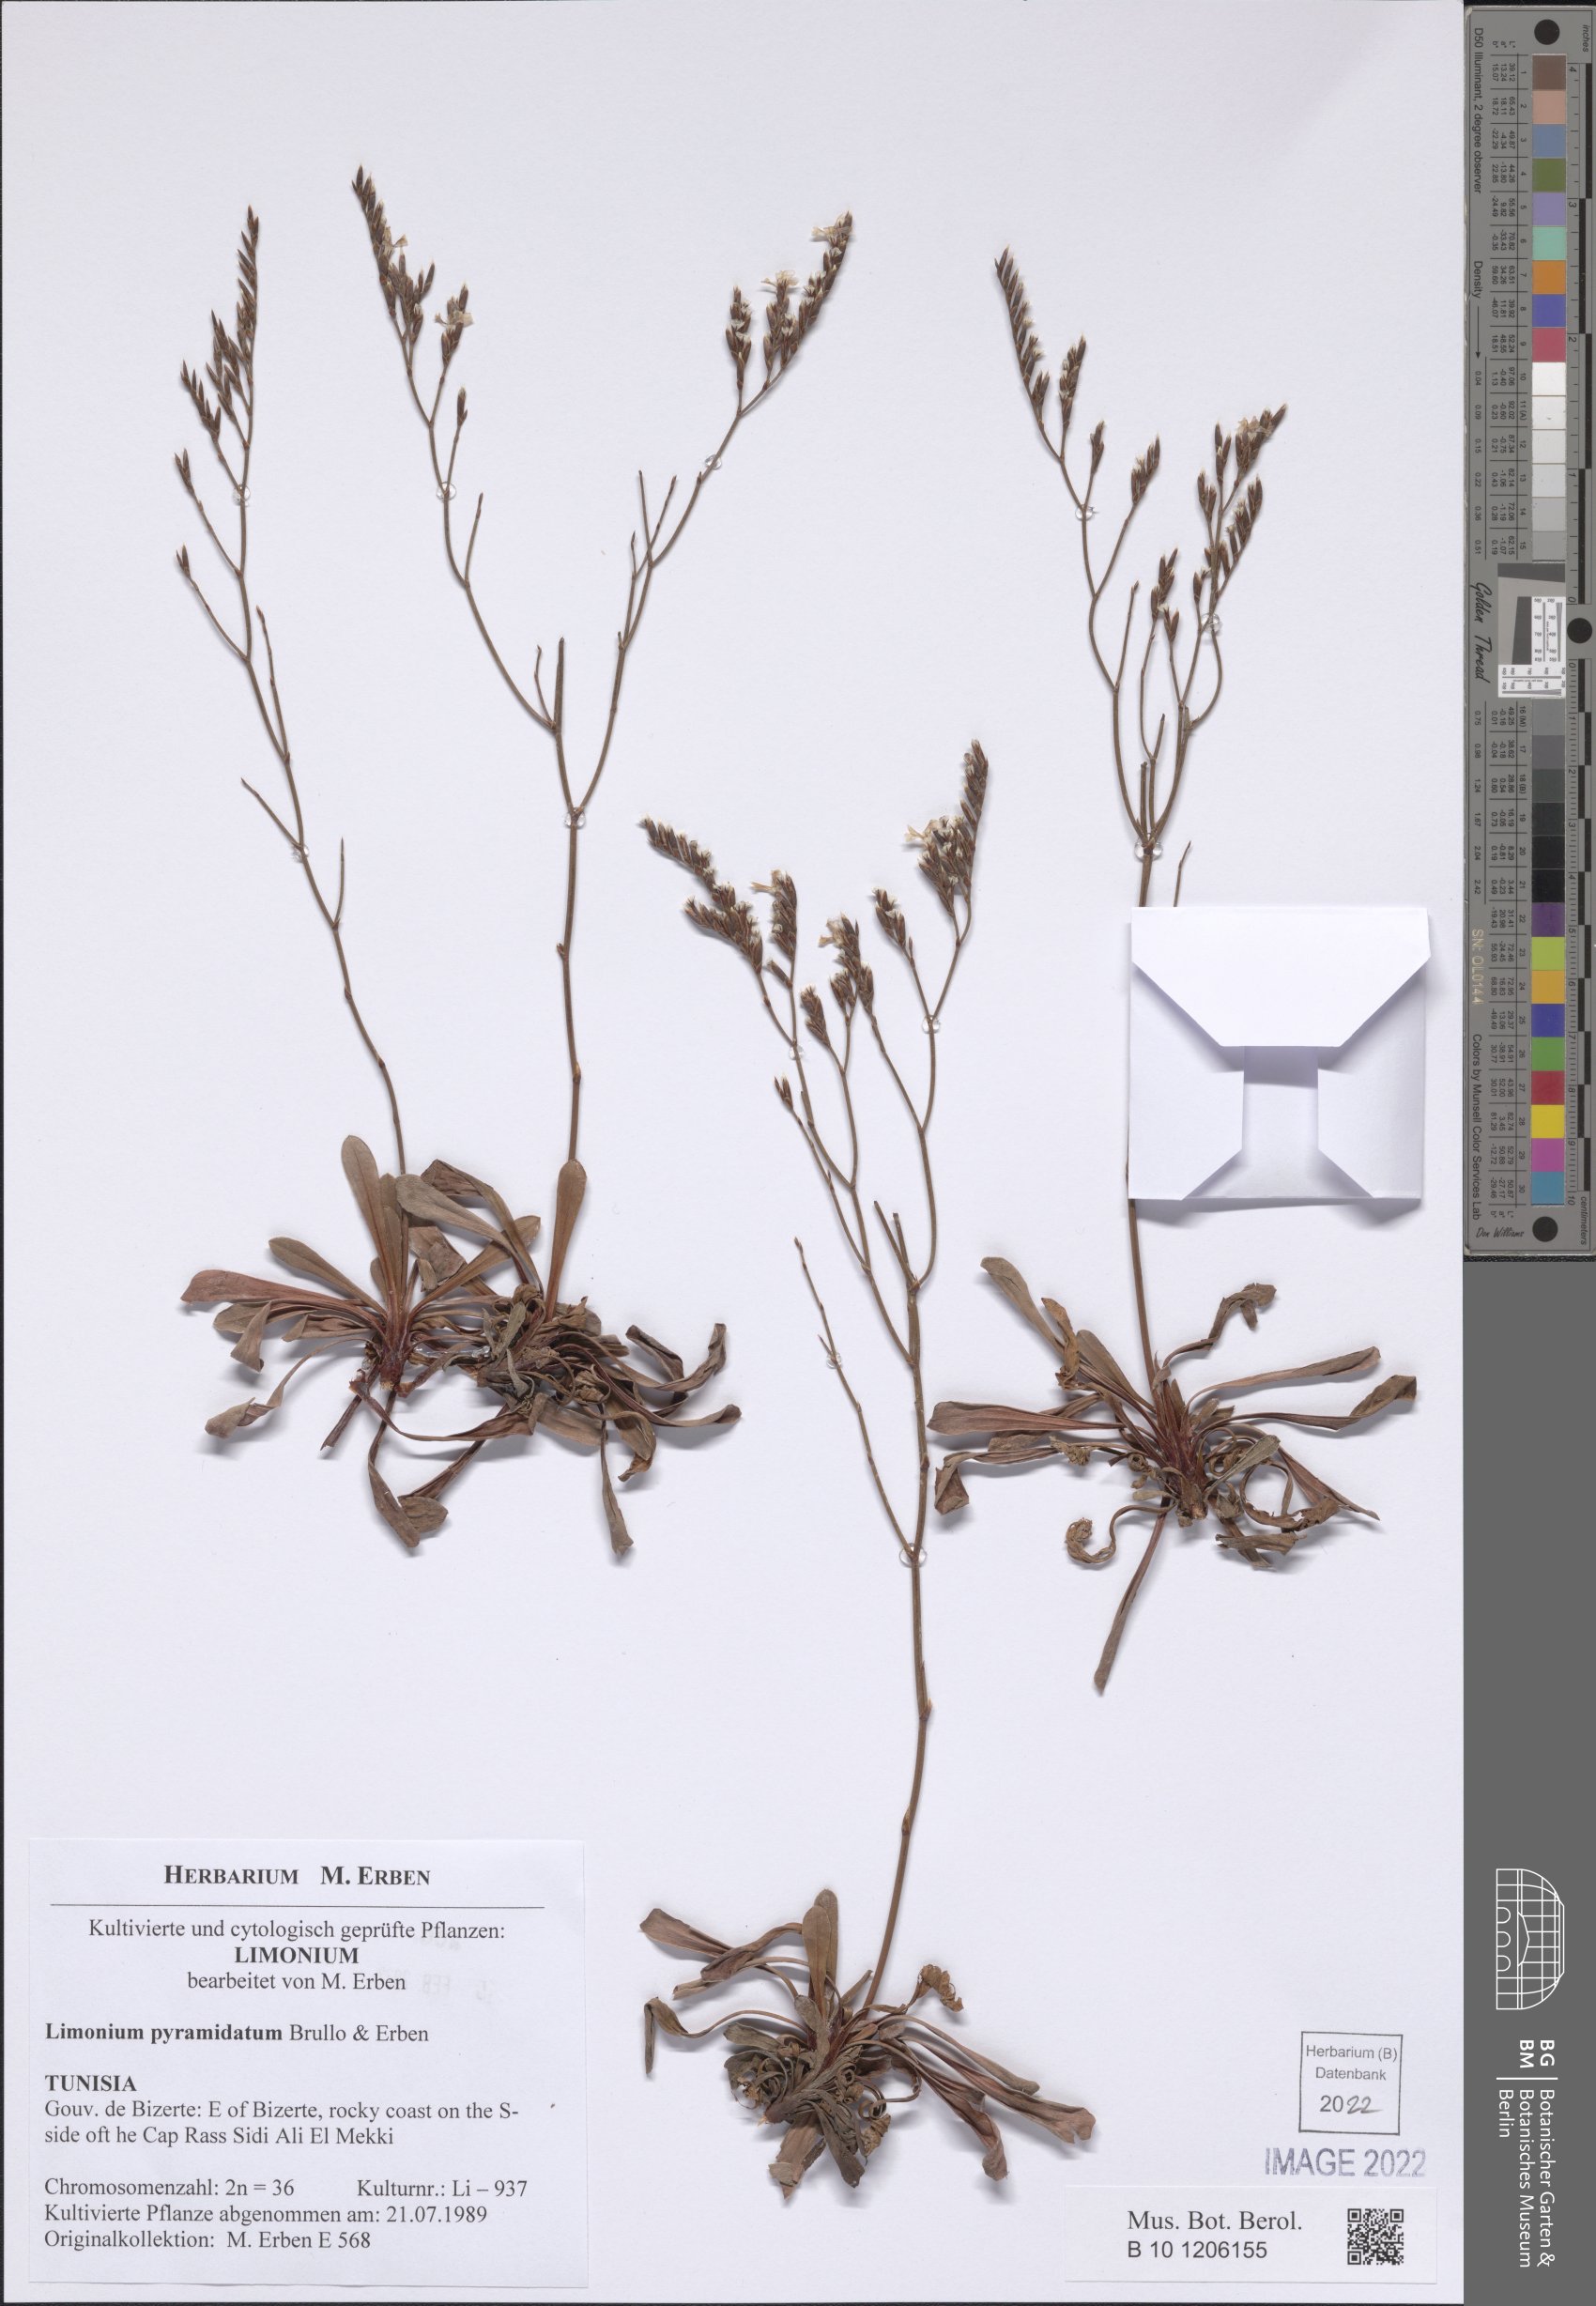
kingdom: Plantae
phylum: Tracheophyta
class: Magnoliopsida
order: Caryophyllales
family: Plumbaginaceae
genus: Limonium
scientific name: Limonium pyramidatum
